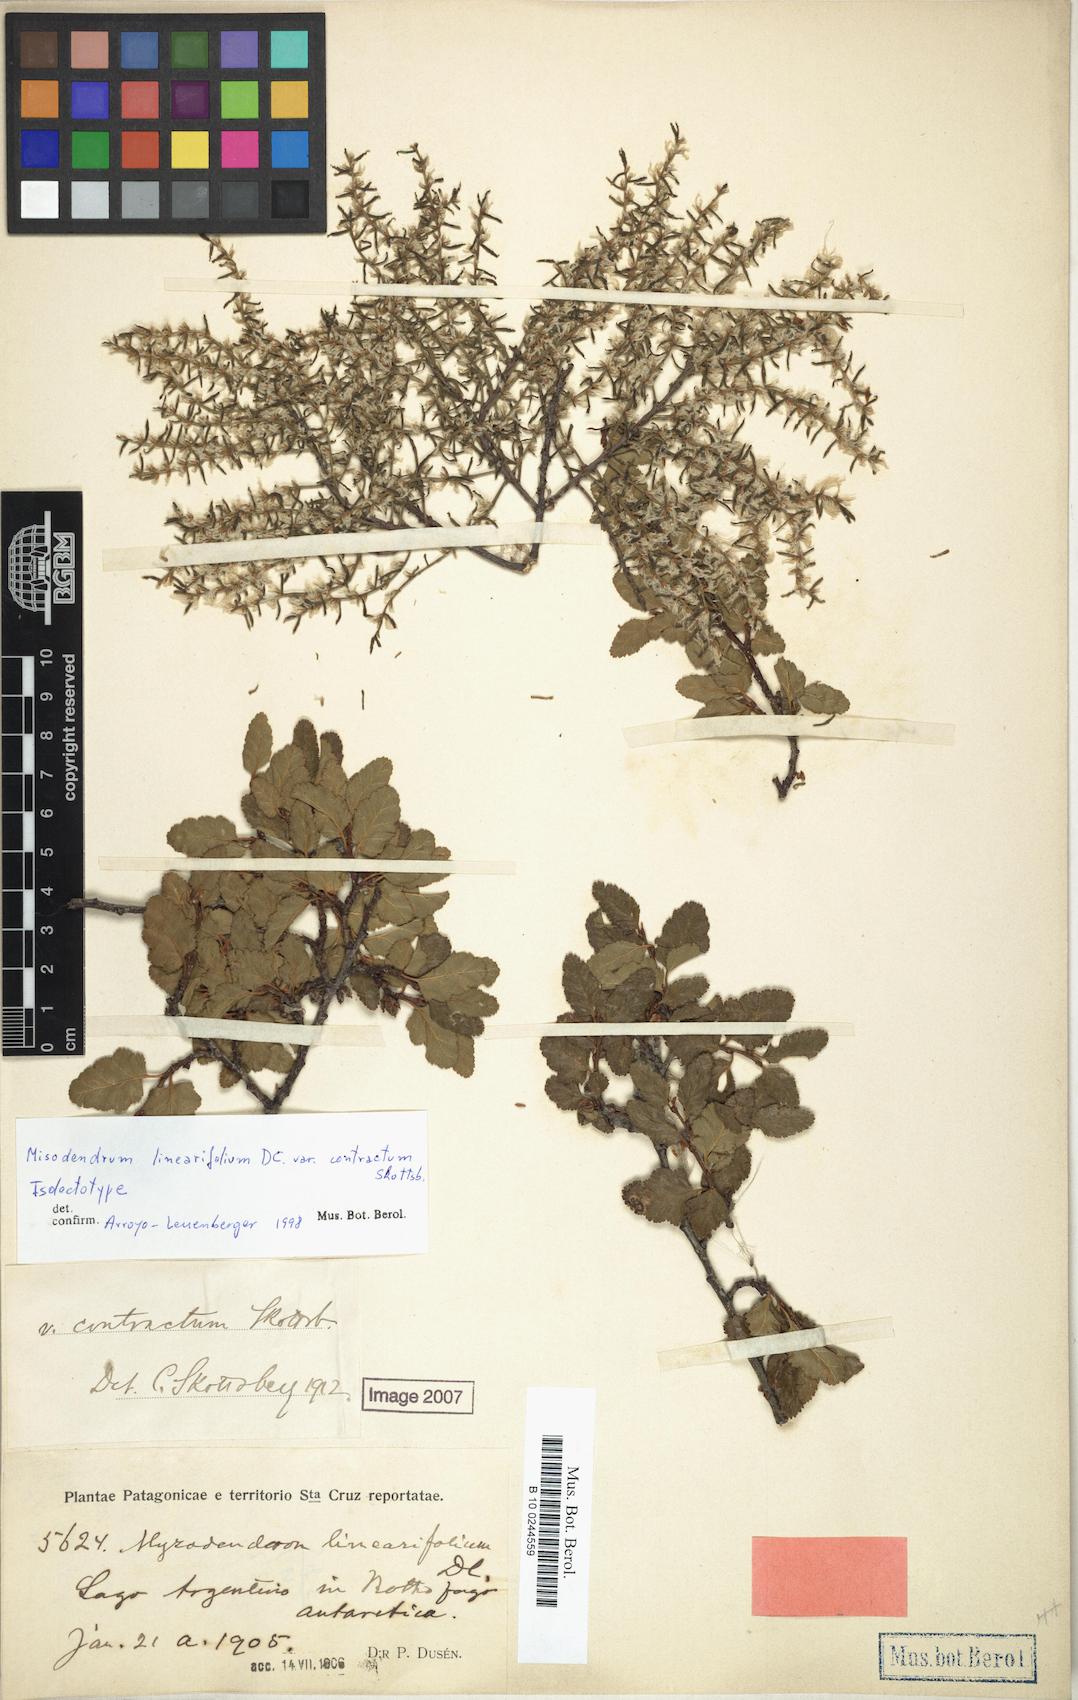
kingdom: Plantae
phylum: Tracheophyta
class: Magnoliopsida
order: Santalales
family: Misodendraceae
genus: Misodendrum
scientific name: Misodendrum linearifolium
